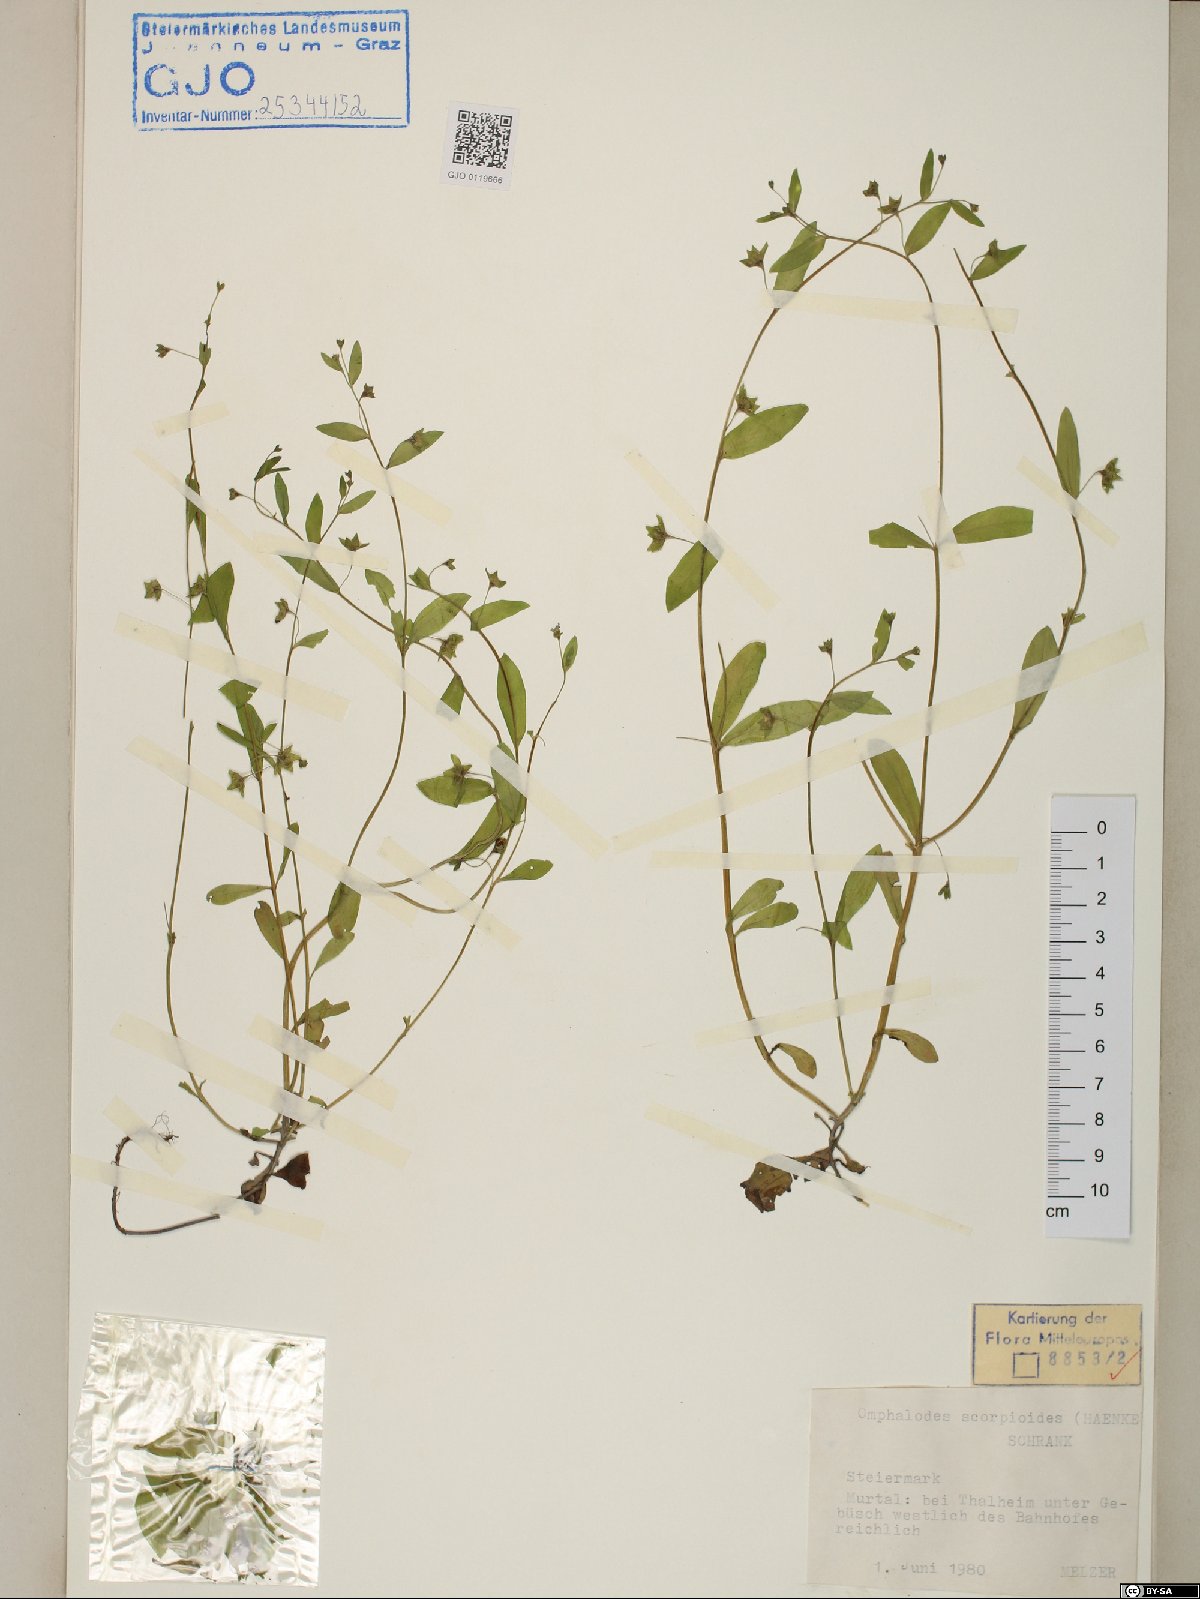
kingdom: Plantae
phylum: Tracheophyta
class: Magnoliopsida
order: Boraginales
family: Boraginaceae
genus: Memoremea
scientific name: Memoremea scorpioides
